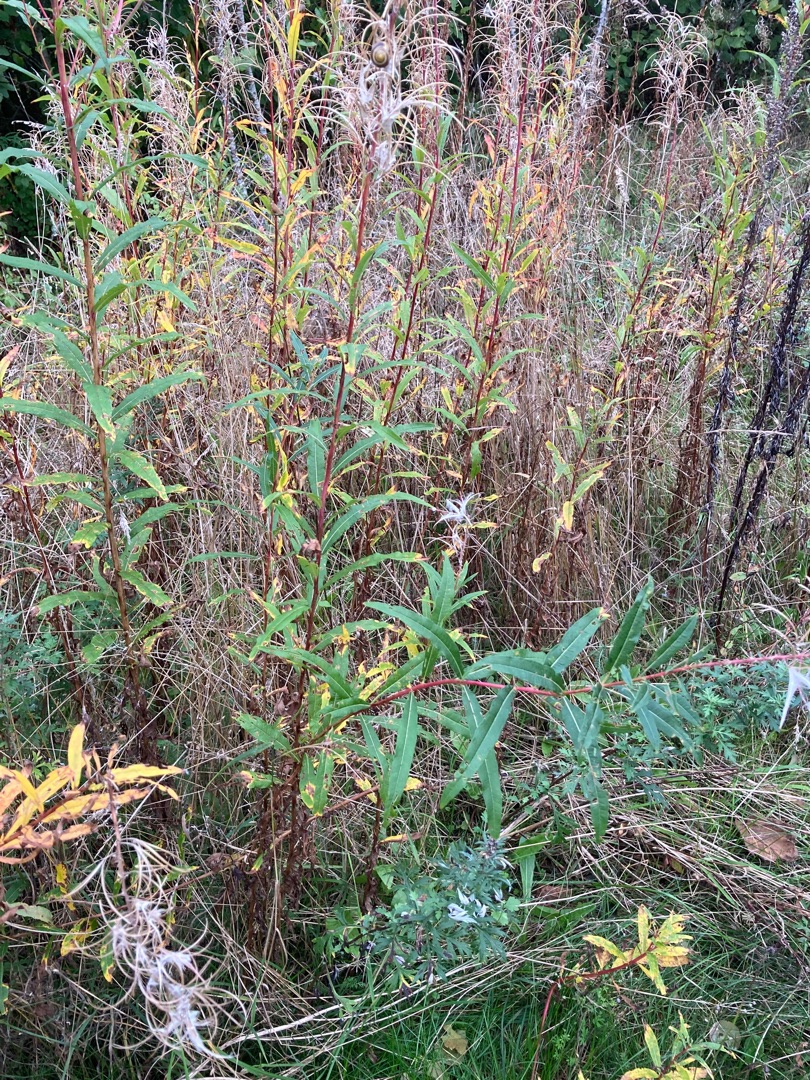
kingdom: Plantae
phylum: Tracheophyta
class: Magnoliopsida
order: Myrtales
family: Onagraceae
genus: Chamaenerion
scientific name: Chamaenerion angustifolium
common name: Gederams
